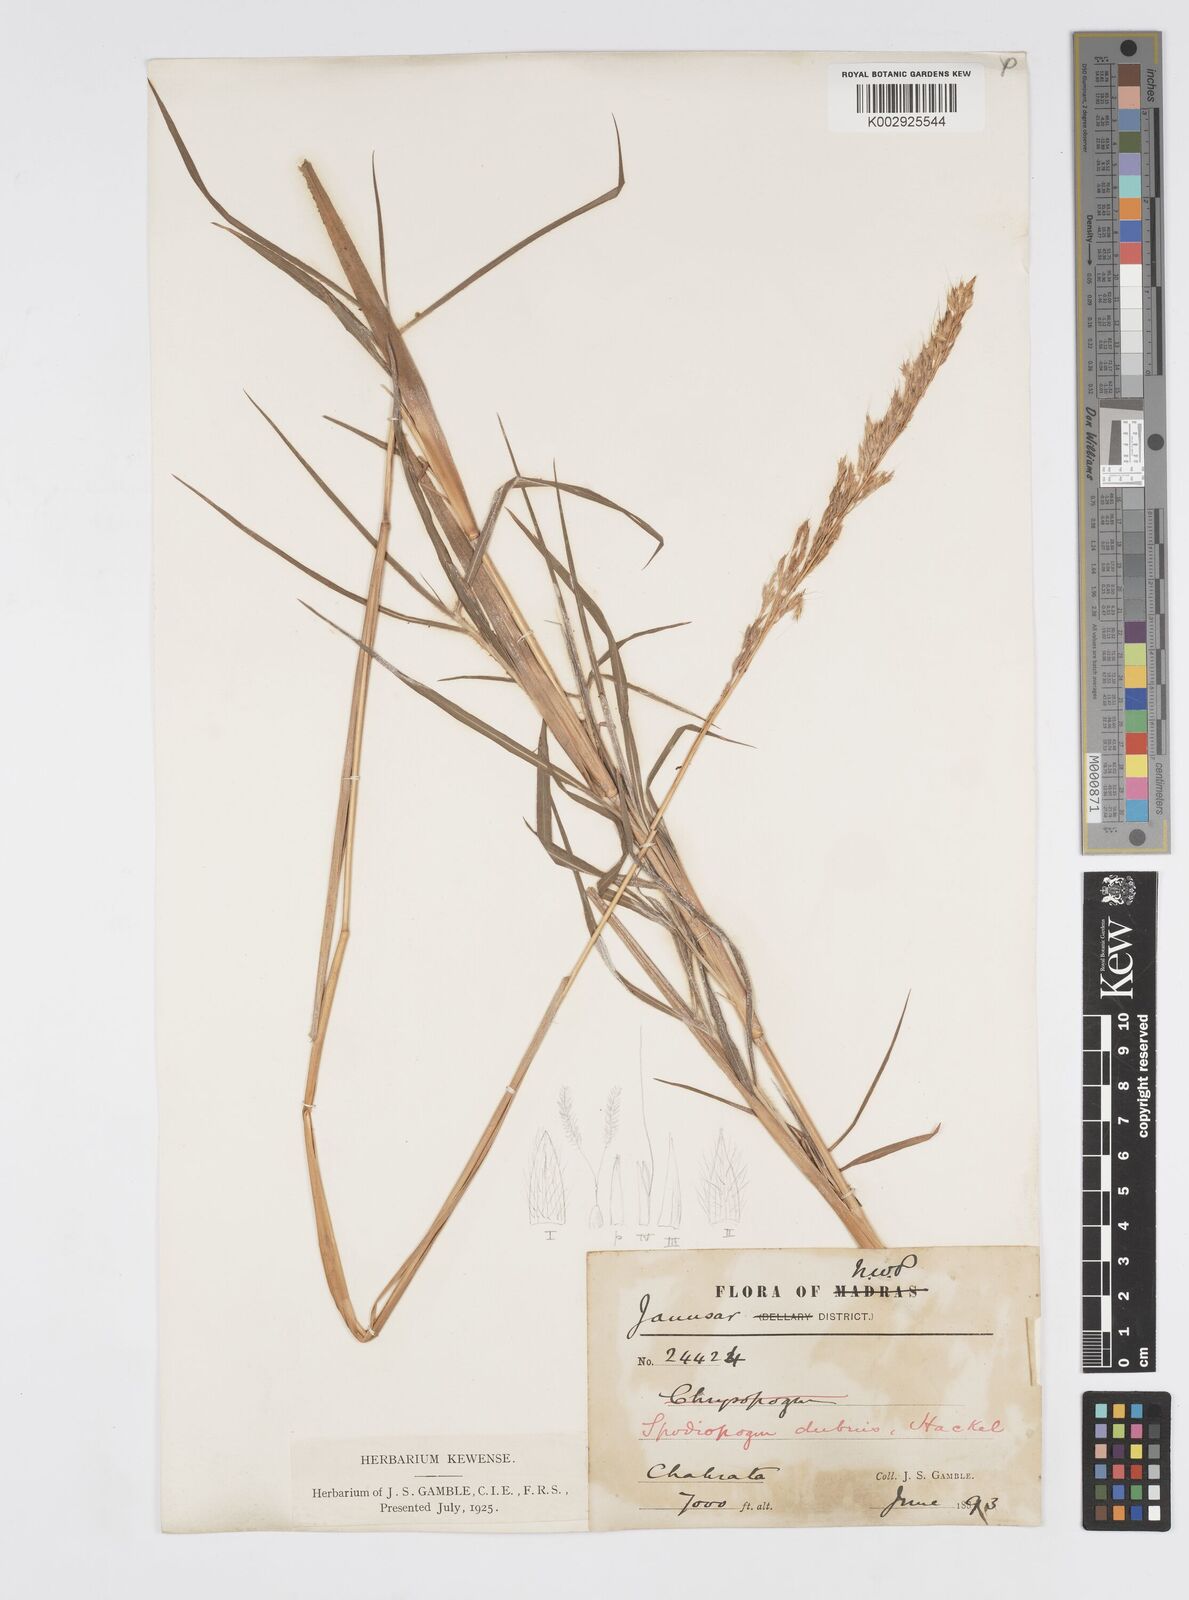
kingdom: Plantae
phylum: Tracheophyta
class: Liliopsida
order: Poales
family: Poaceae
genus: Spodiopogon
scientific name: Spodiopogon cotulifer
